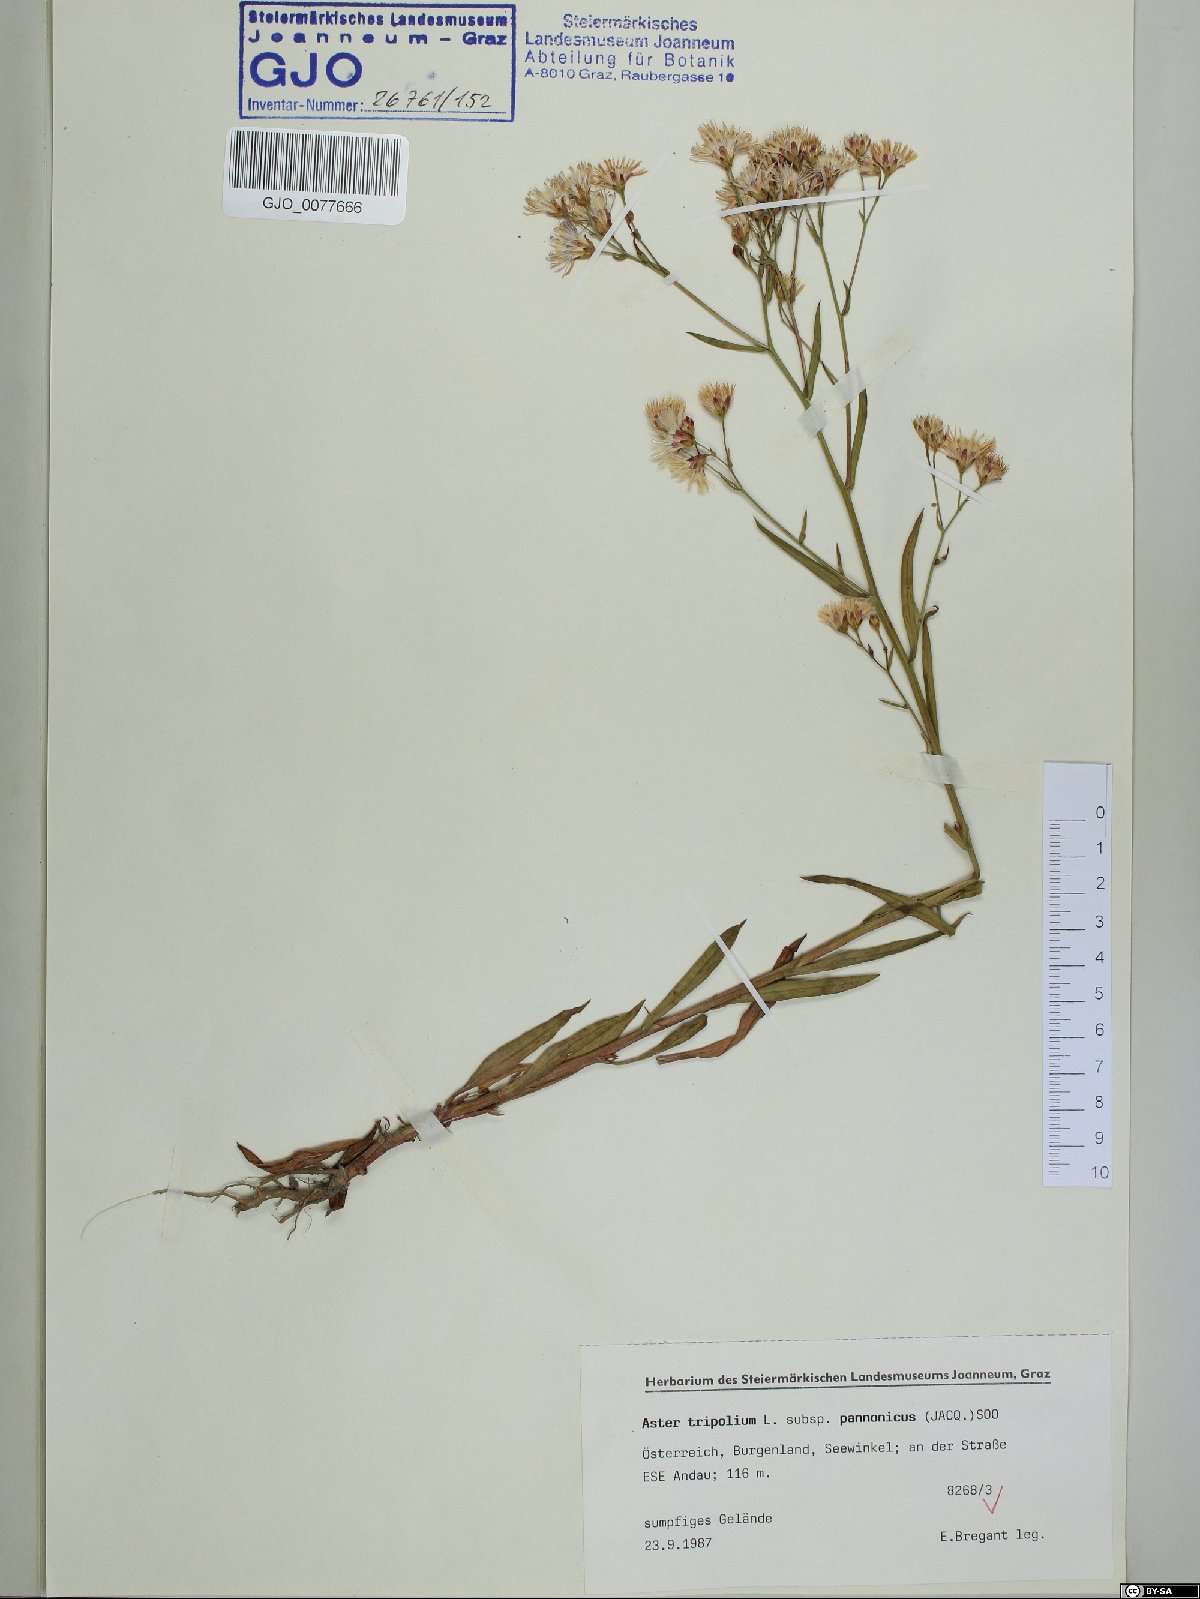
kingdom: Plantae
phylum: Tracheophyta
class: Magnoliopsida
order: Asterales
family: Asteraceae
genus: Tripolium
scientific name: Tripolium pannonicum
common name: Sea aster
